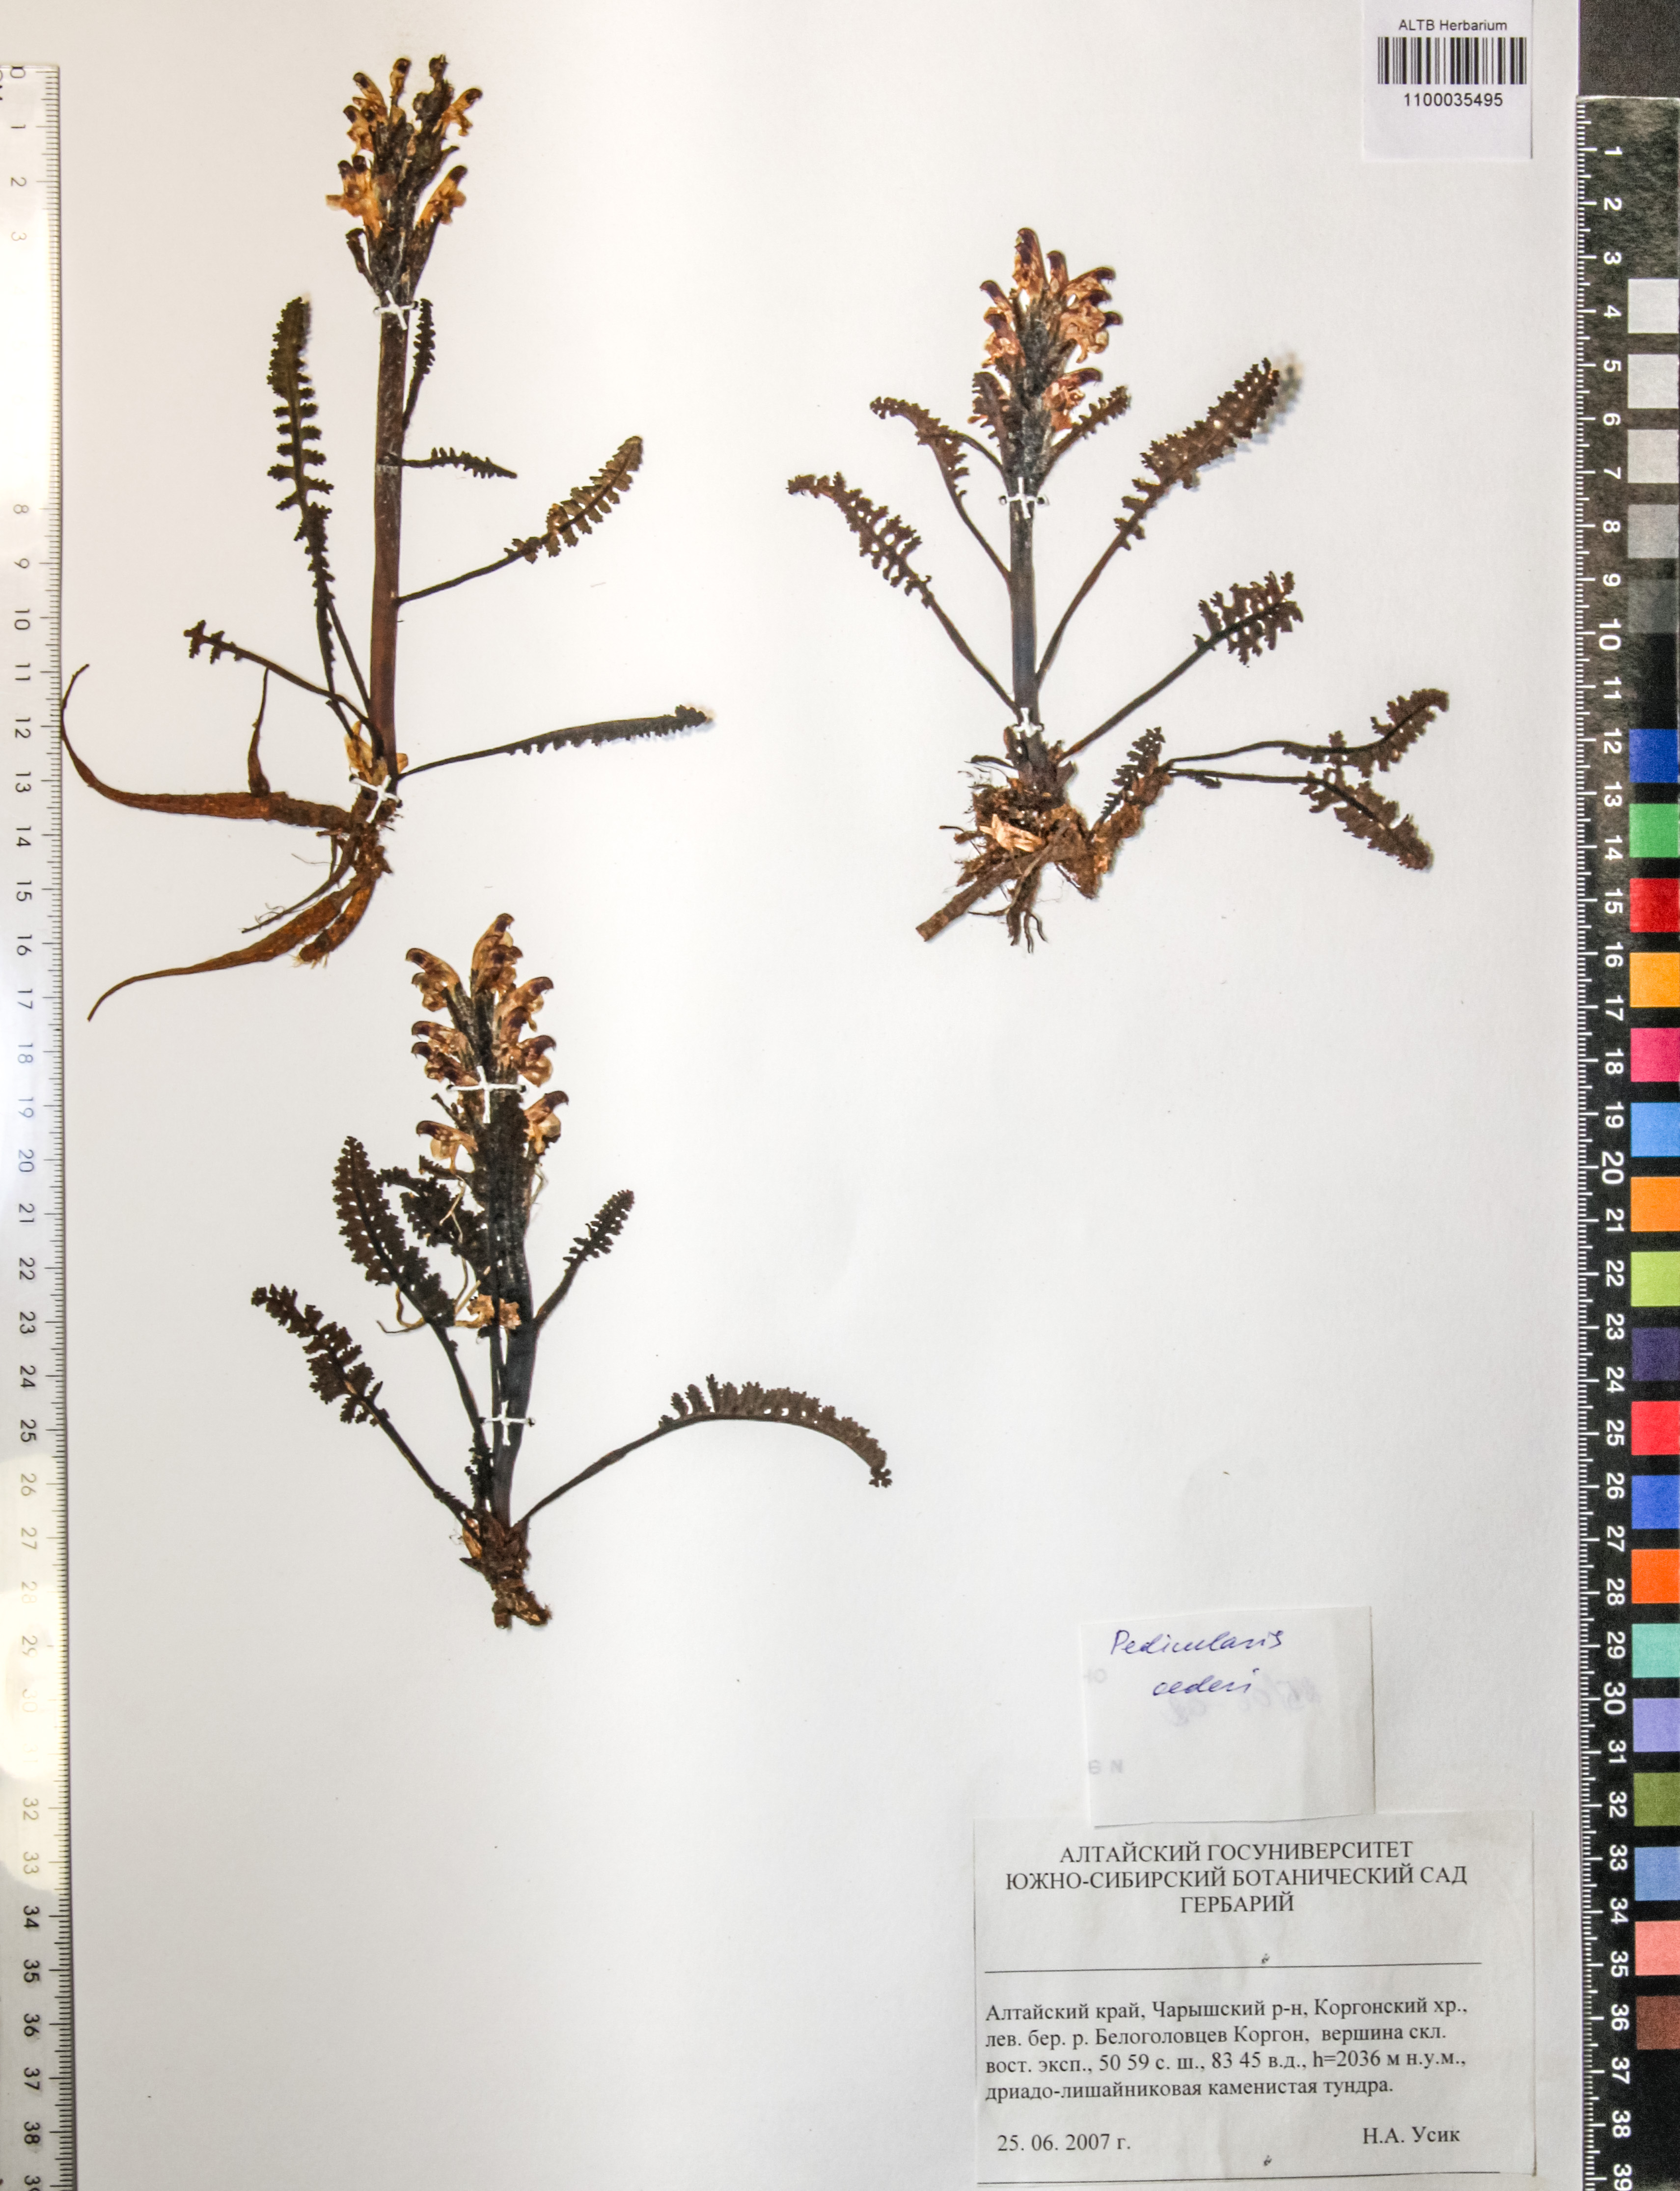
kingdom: Plantae
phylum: Tracheophyta
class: Magnoliopsida
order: Caryophyllales
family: Caryophyllaceae
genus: Silene
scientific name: Silene graminifolia
